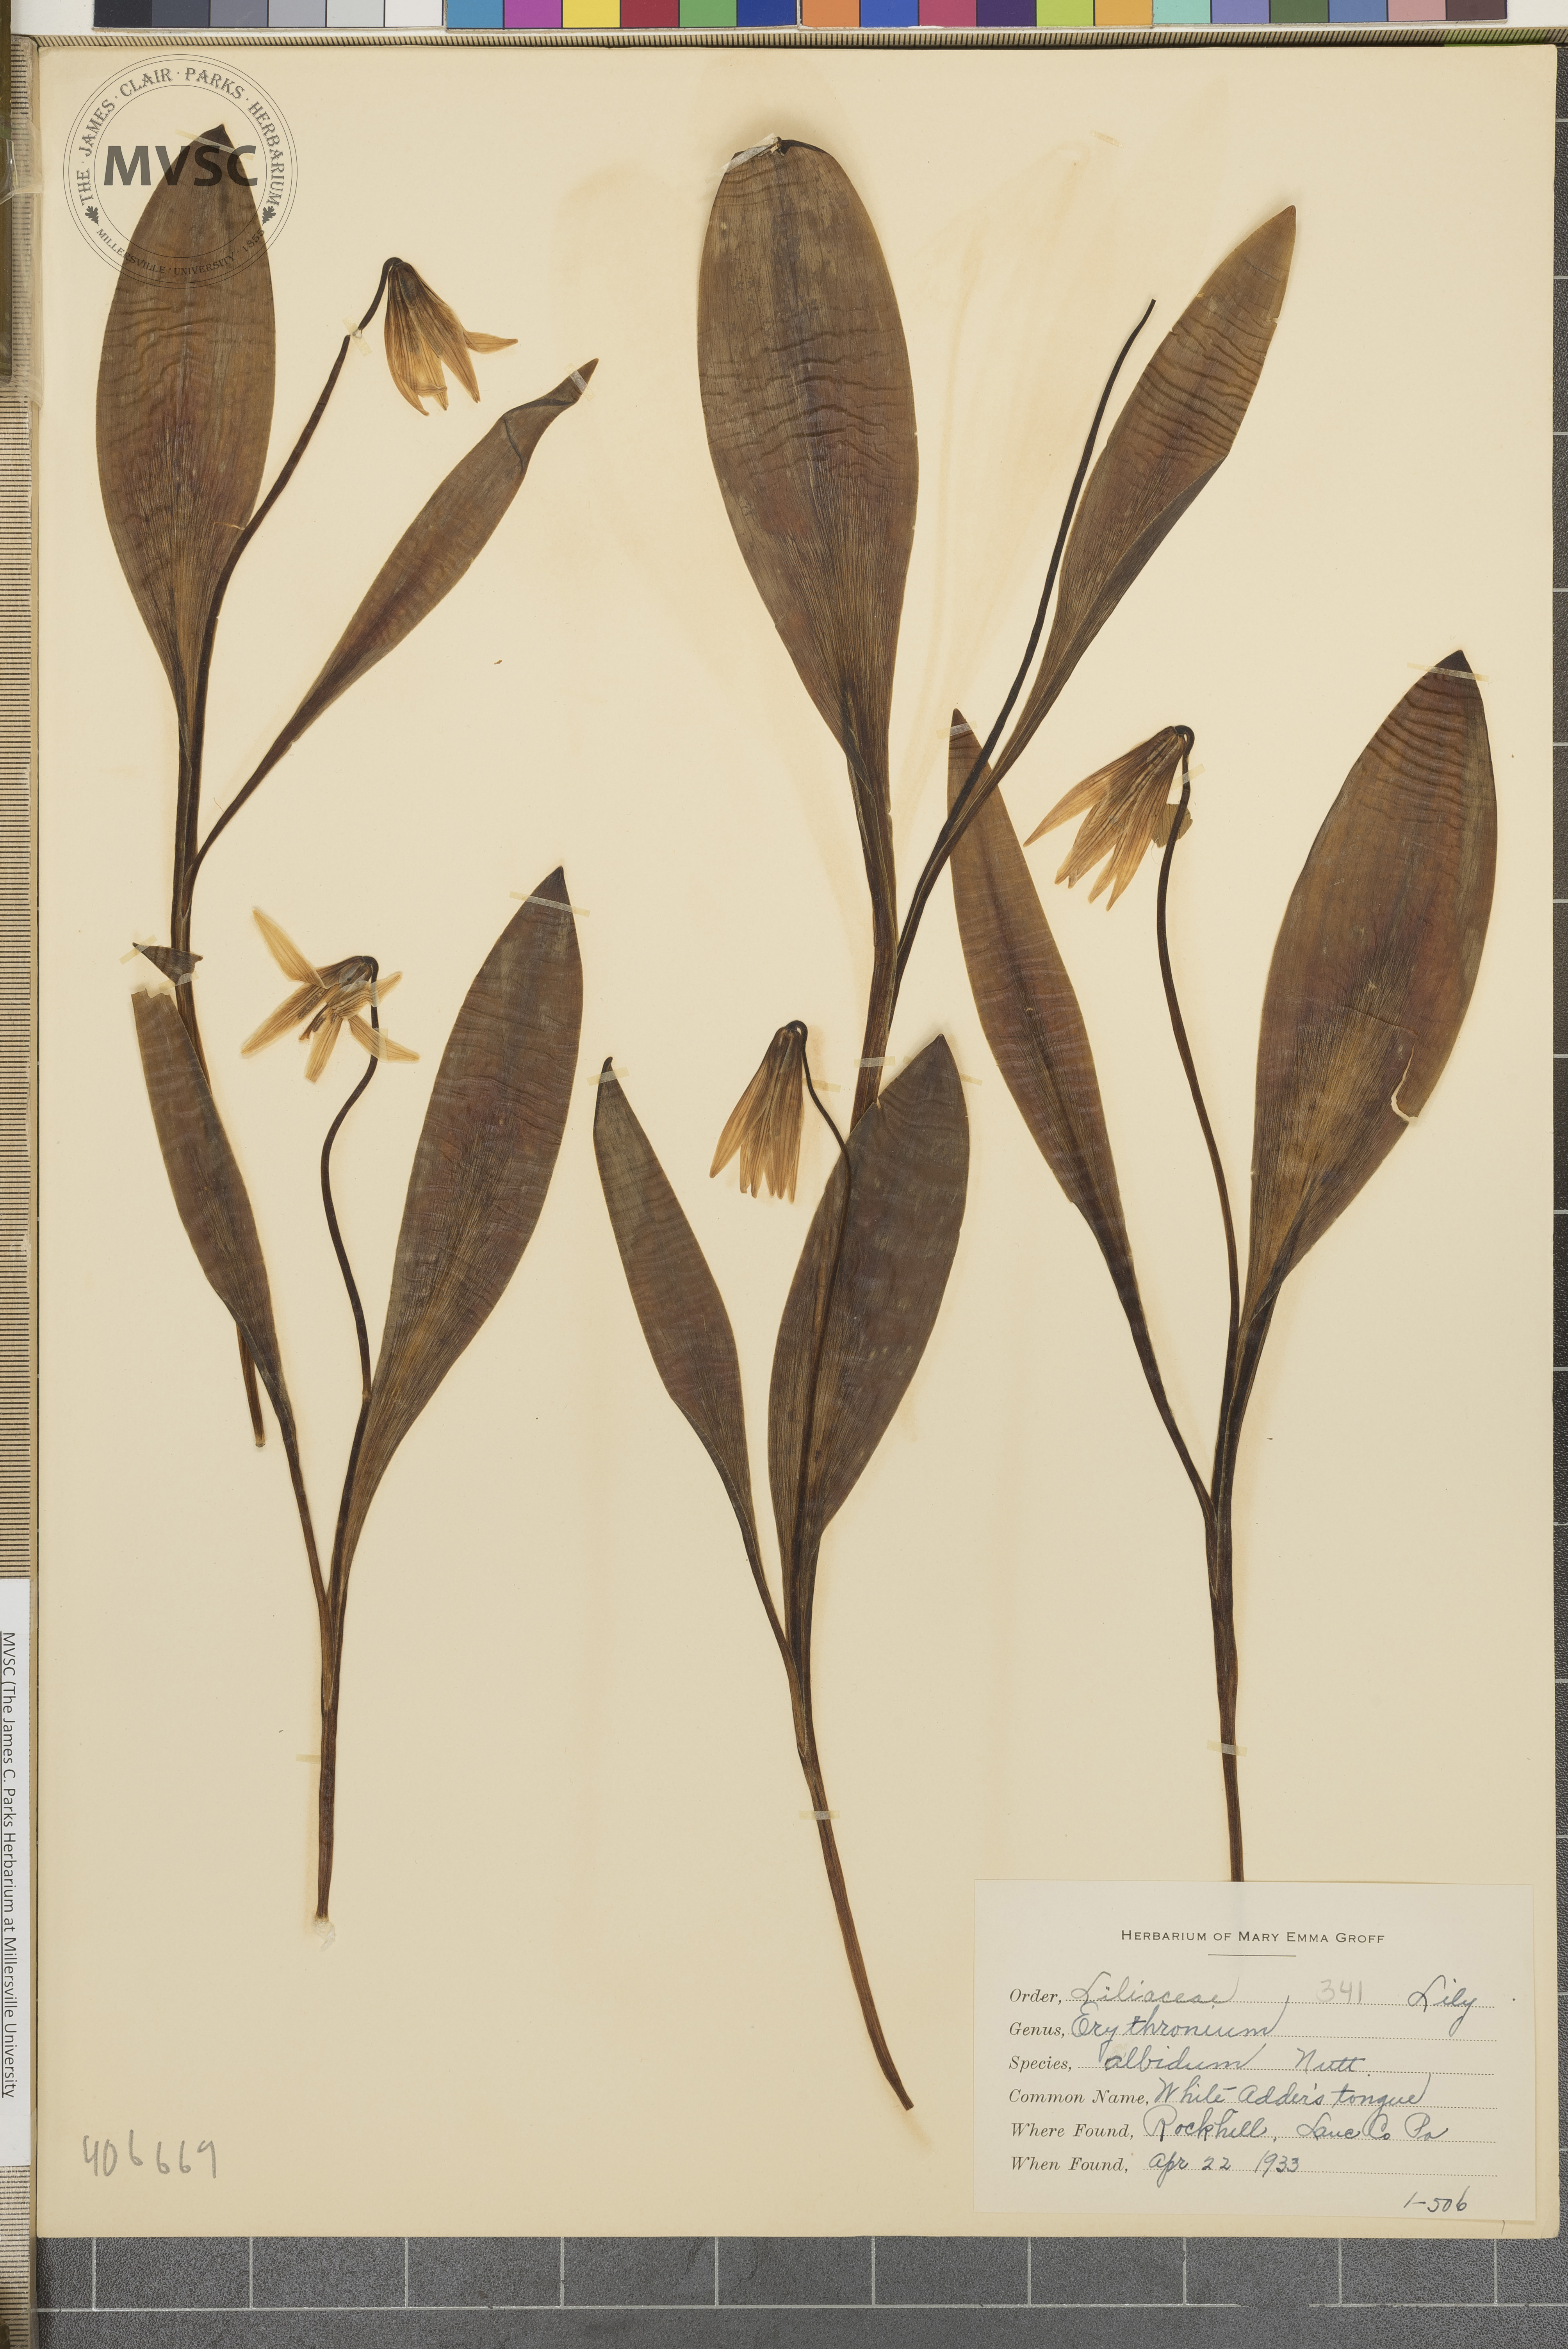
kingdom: Plantae
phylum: Tracheophyta
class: Liliopsida
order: Liliales
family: Liliaceae
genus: Erythronium
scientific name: Erythronium albidum
